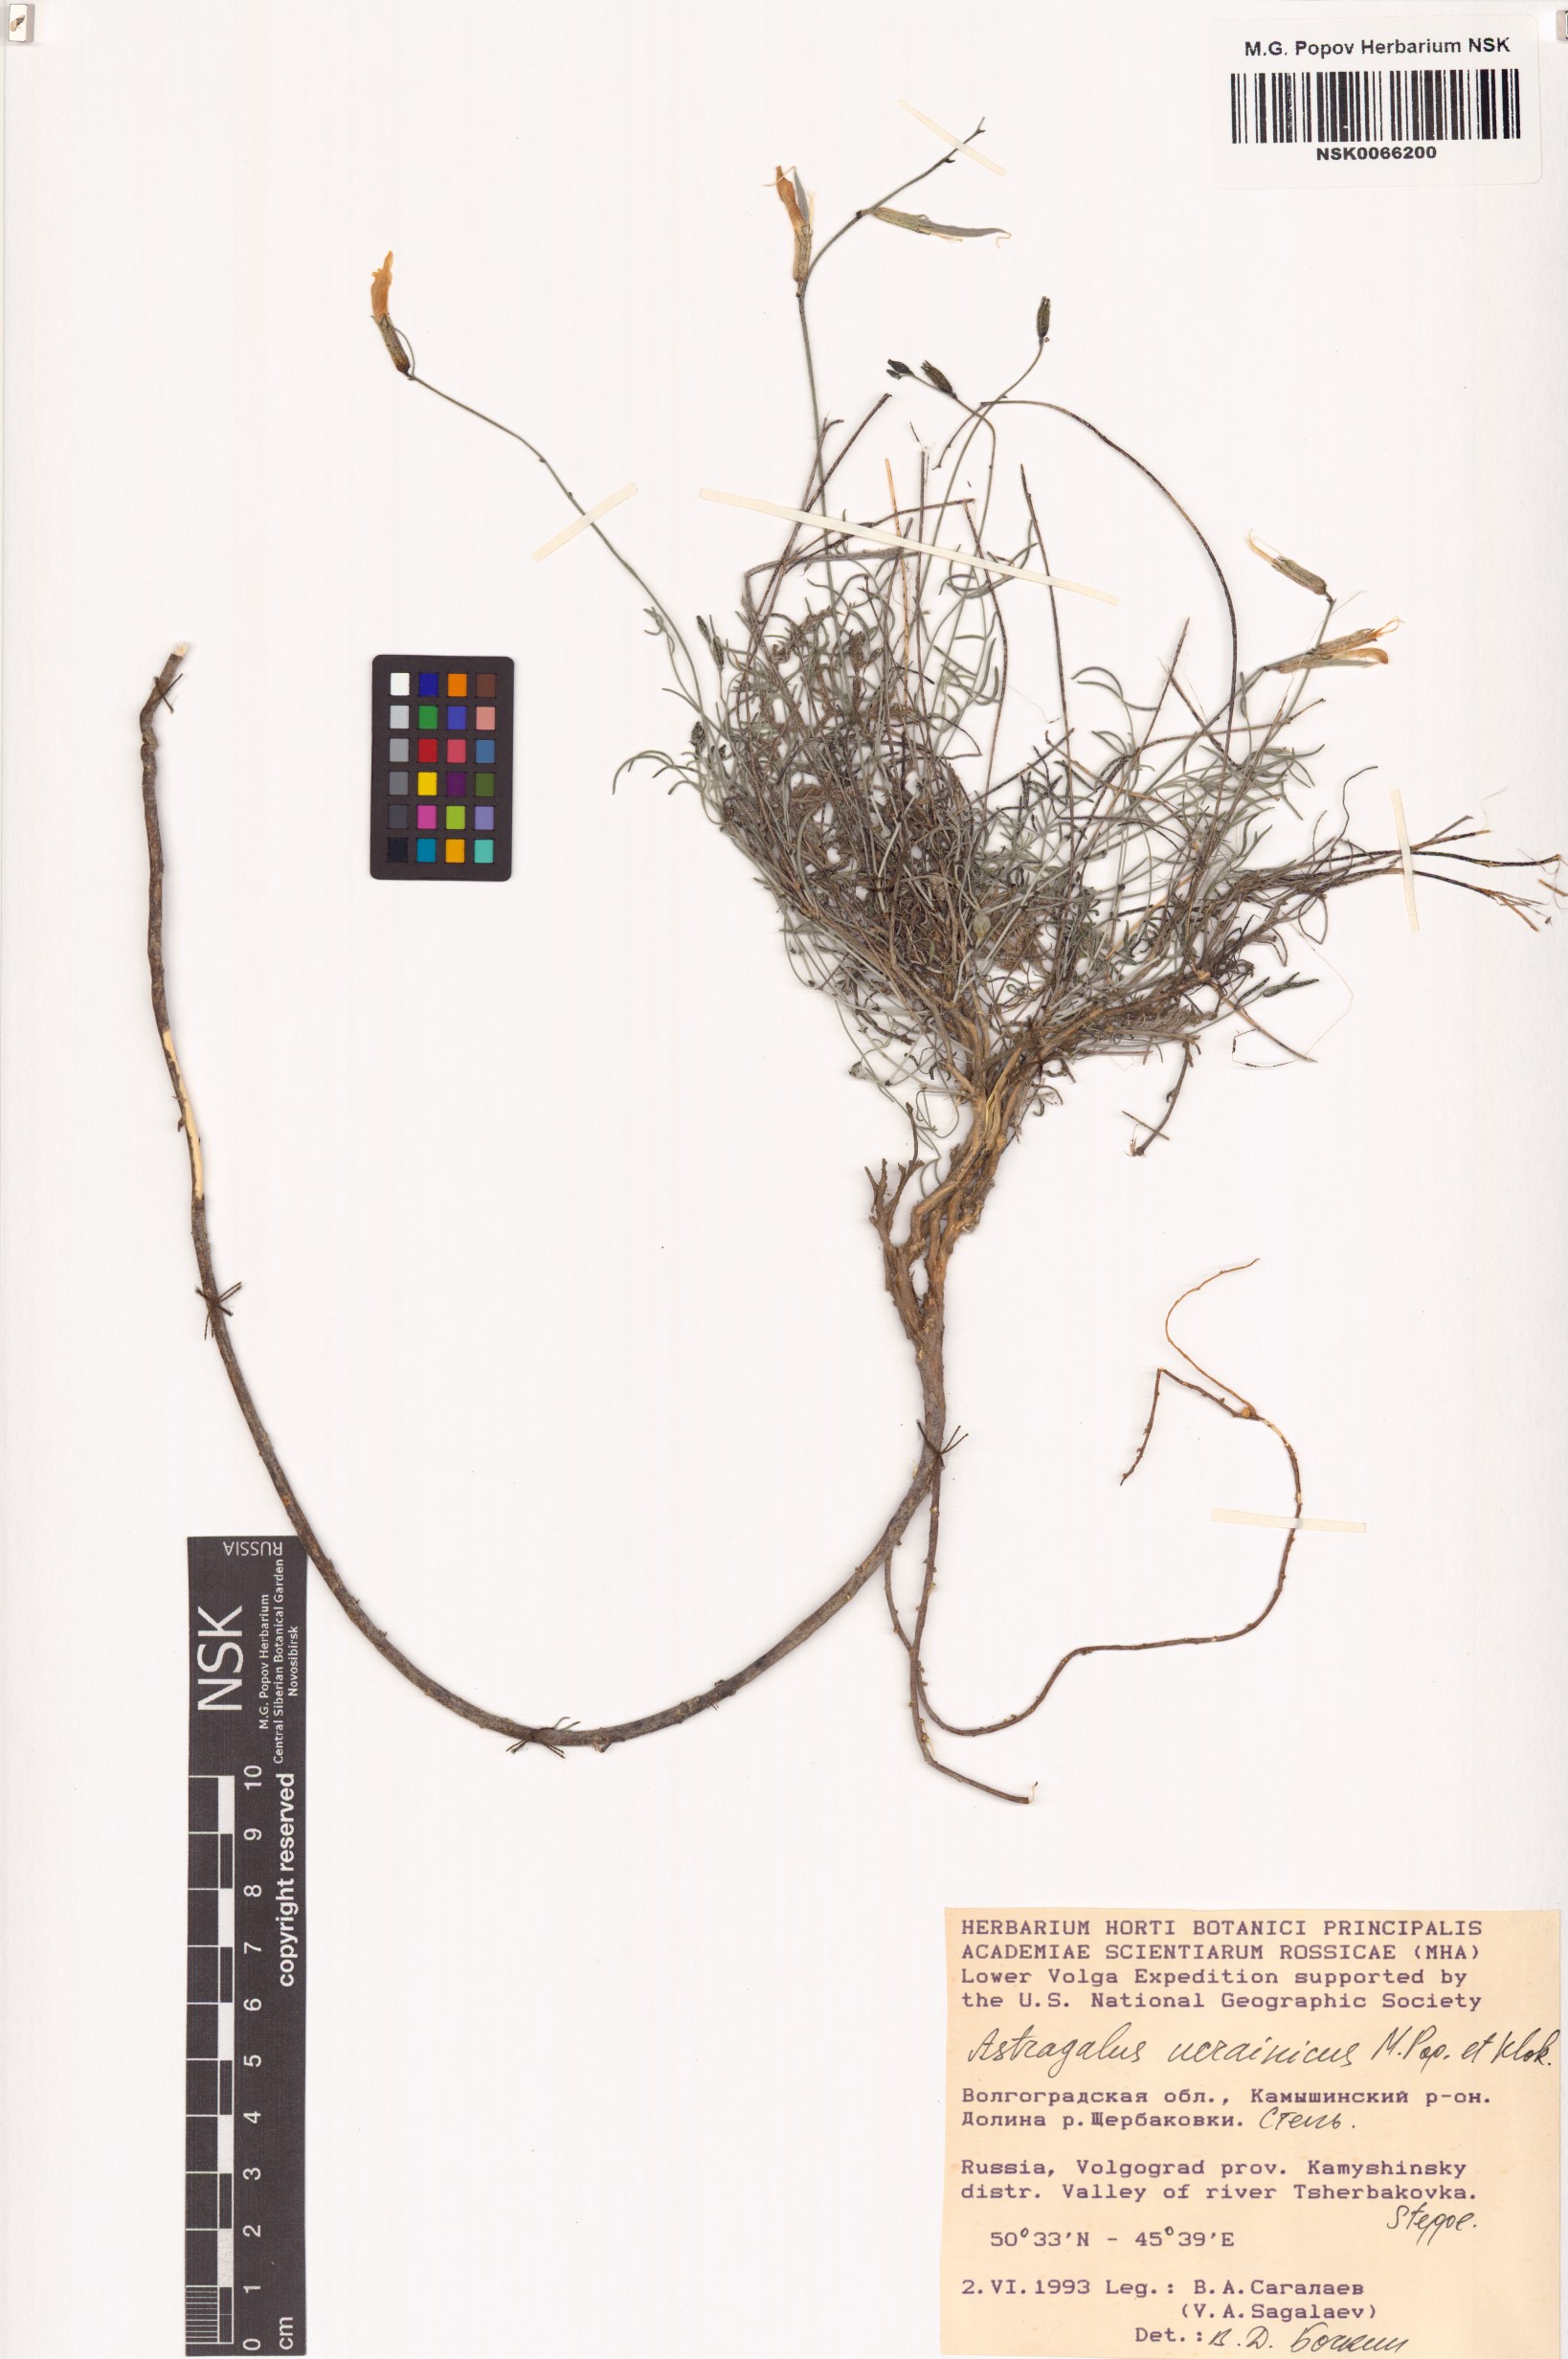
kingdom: Plantae
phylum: Tracheophyta
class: Magnoliopsida
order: Fabales
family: Fabaceae
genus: Astragalus
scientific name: Astragalus ucrainicus
